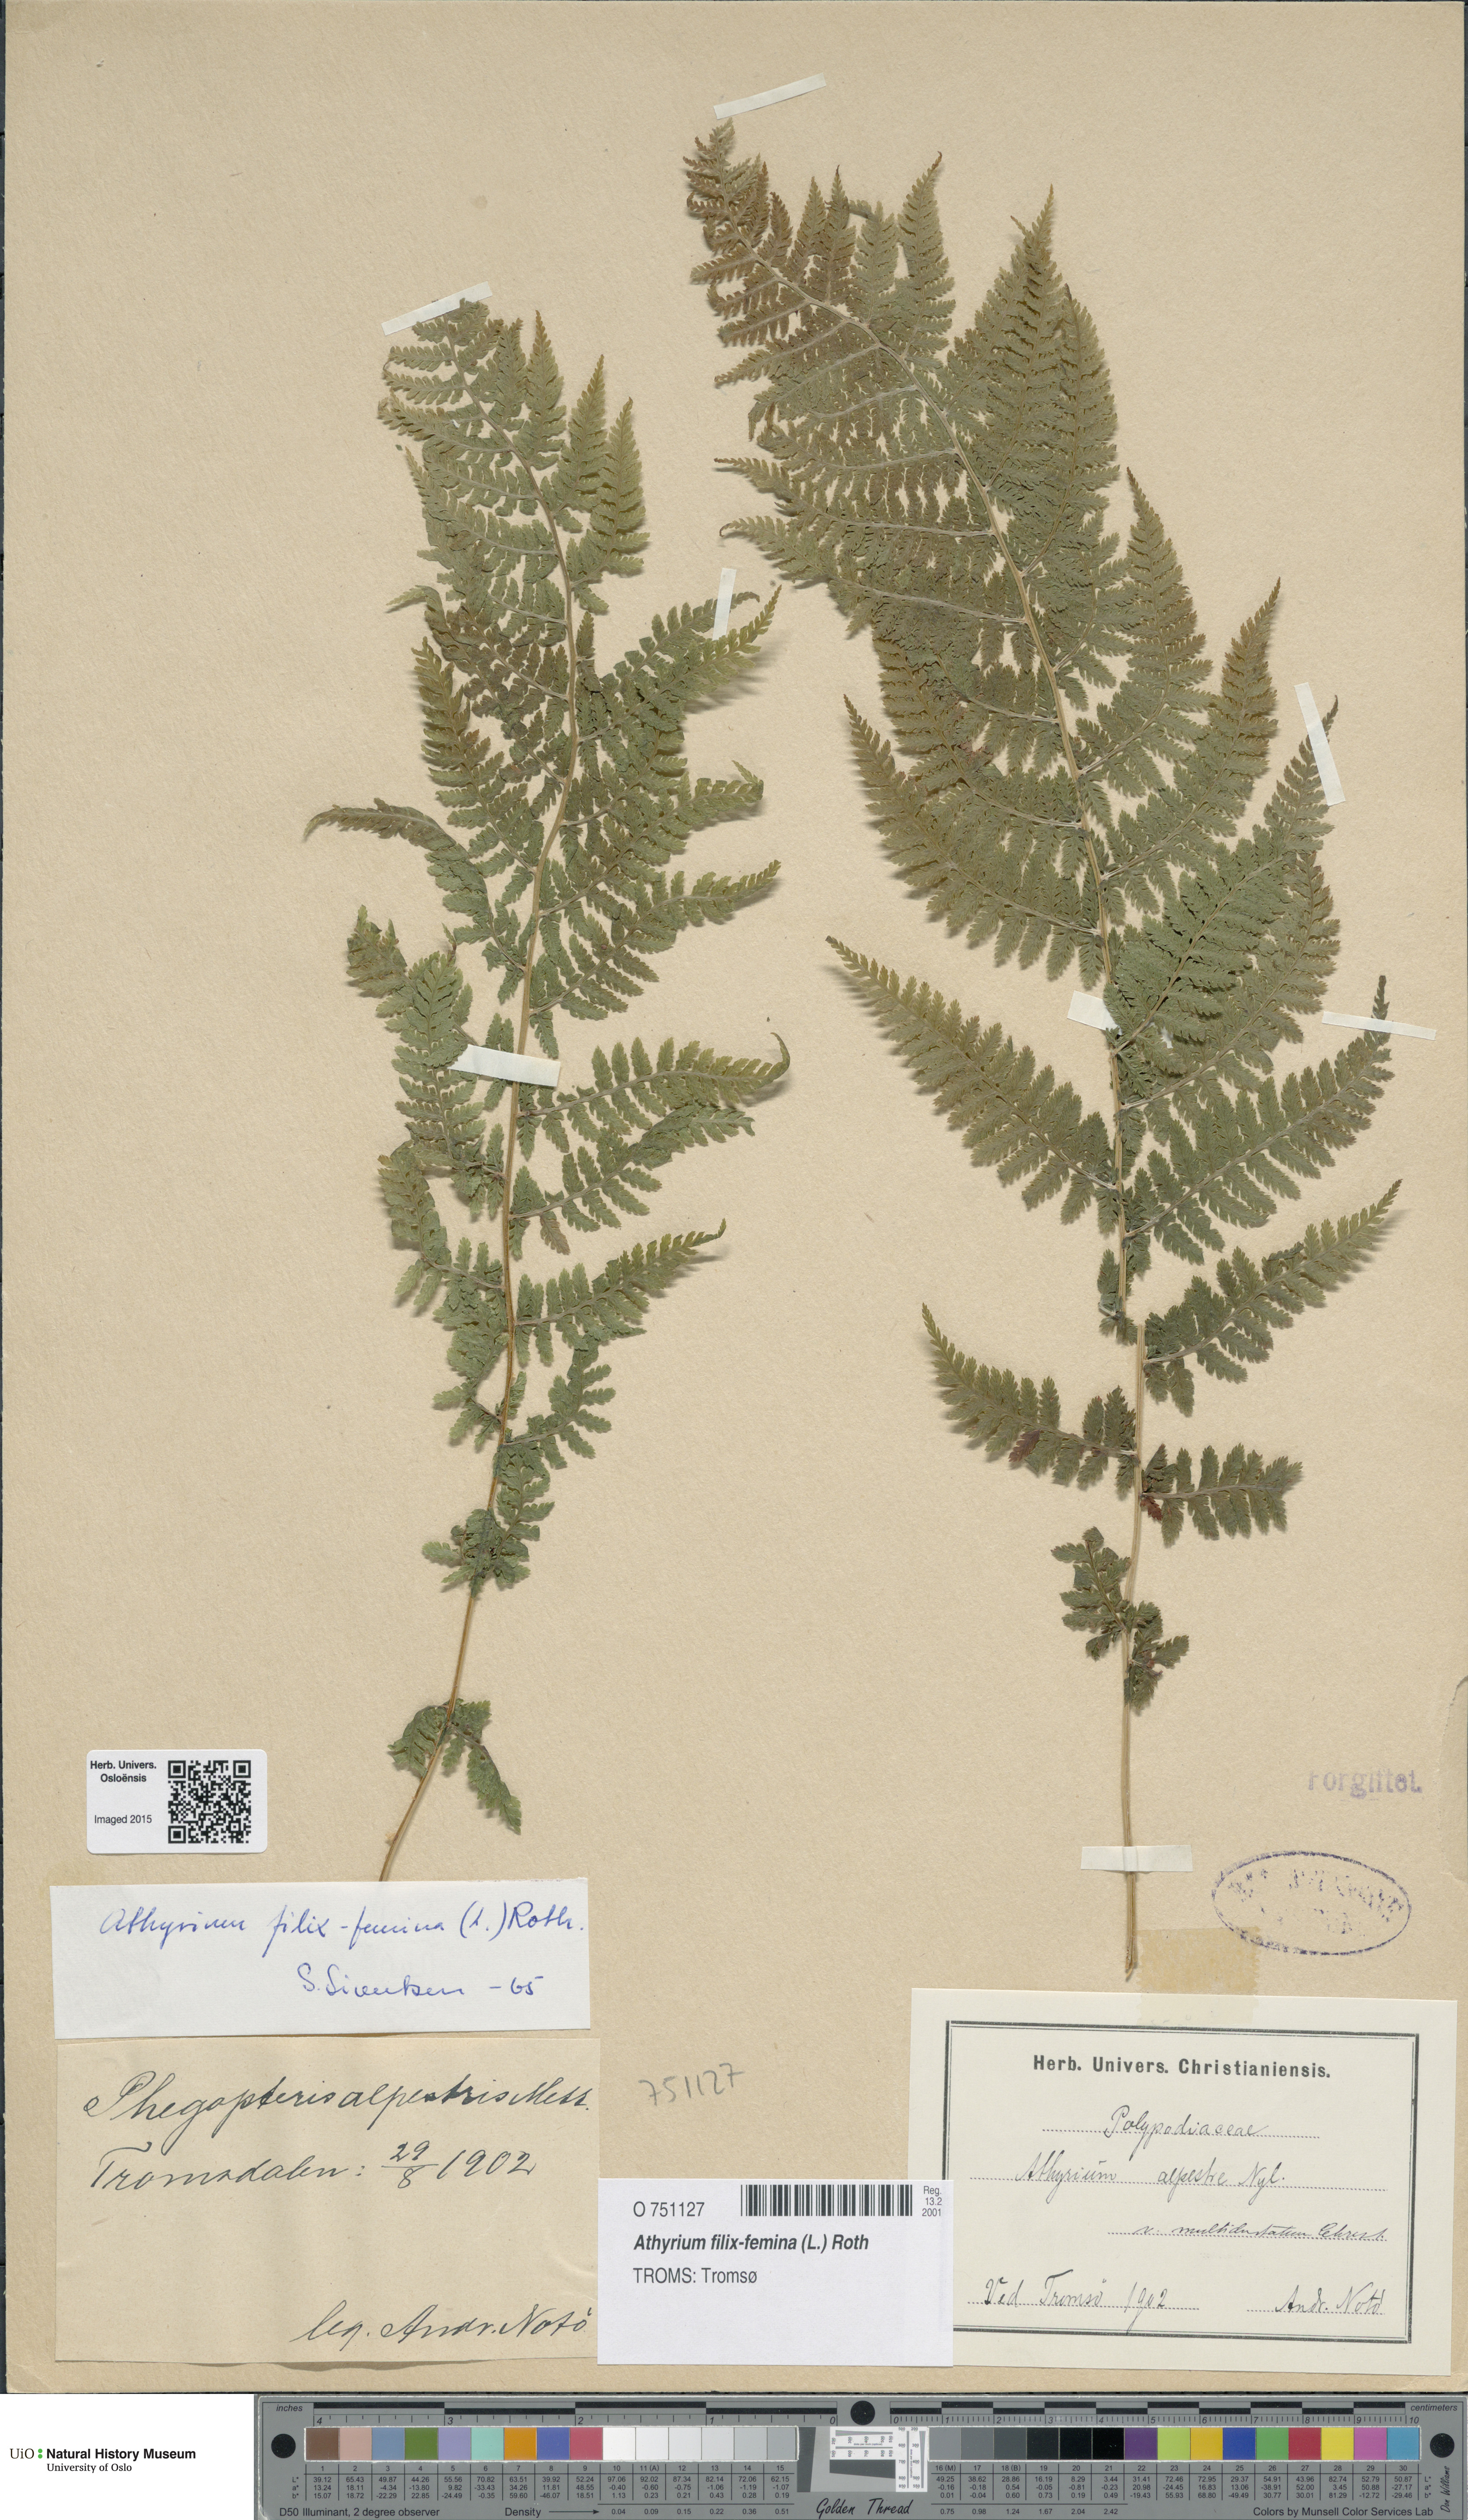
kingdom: Plantae
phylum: Tracheophyta
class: Polypodiopsida
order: Polypodiales
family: Athyriaceae
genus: Athyrium
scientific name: Athyrium filix-femina
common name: Lady fern
